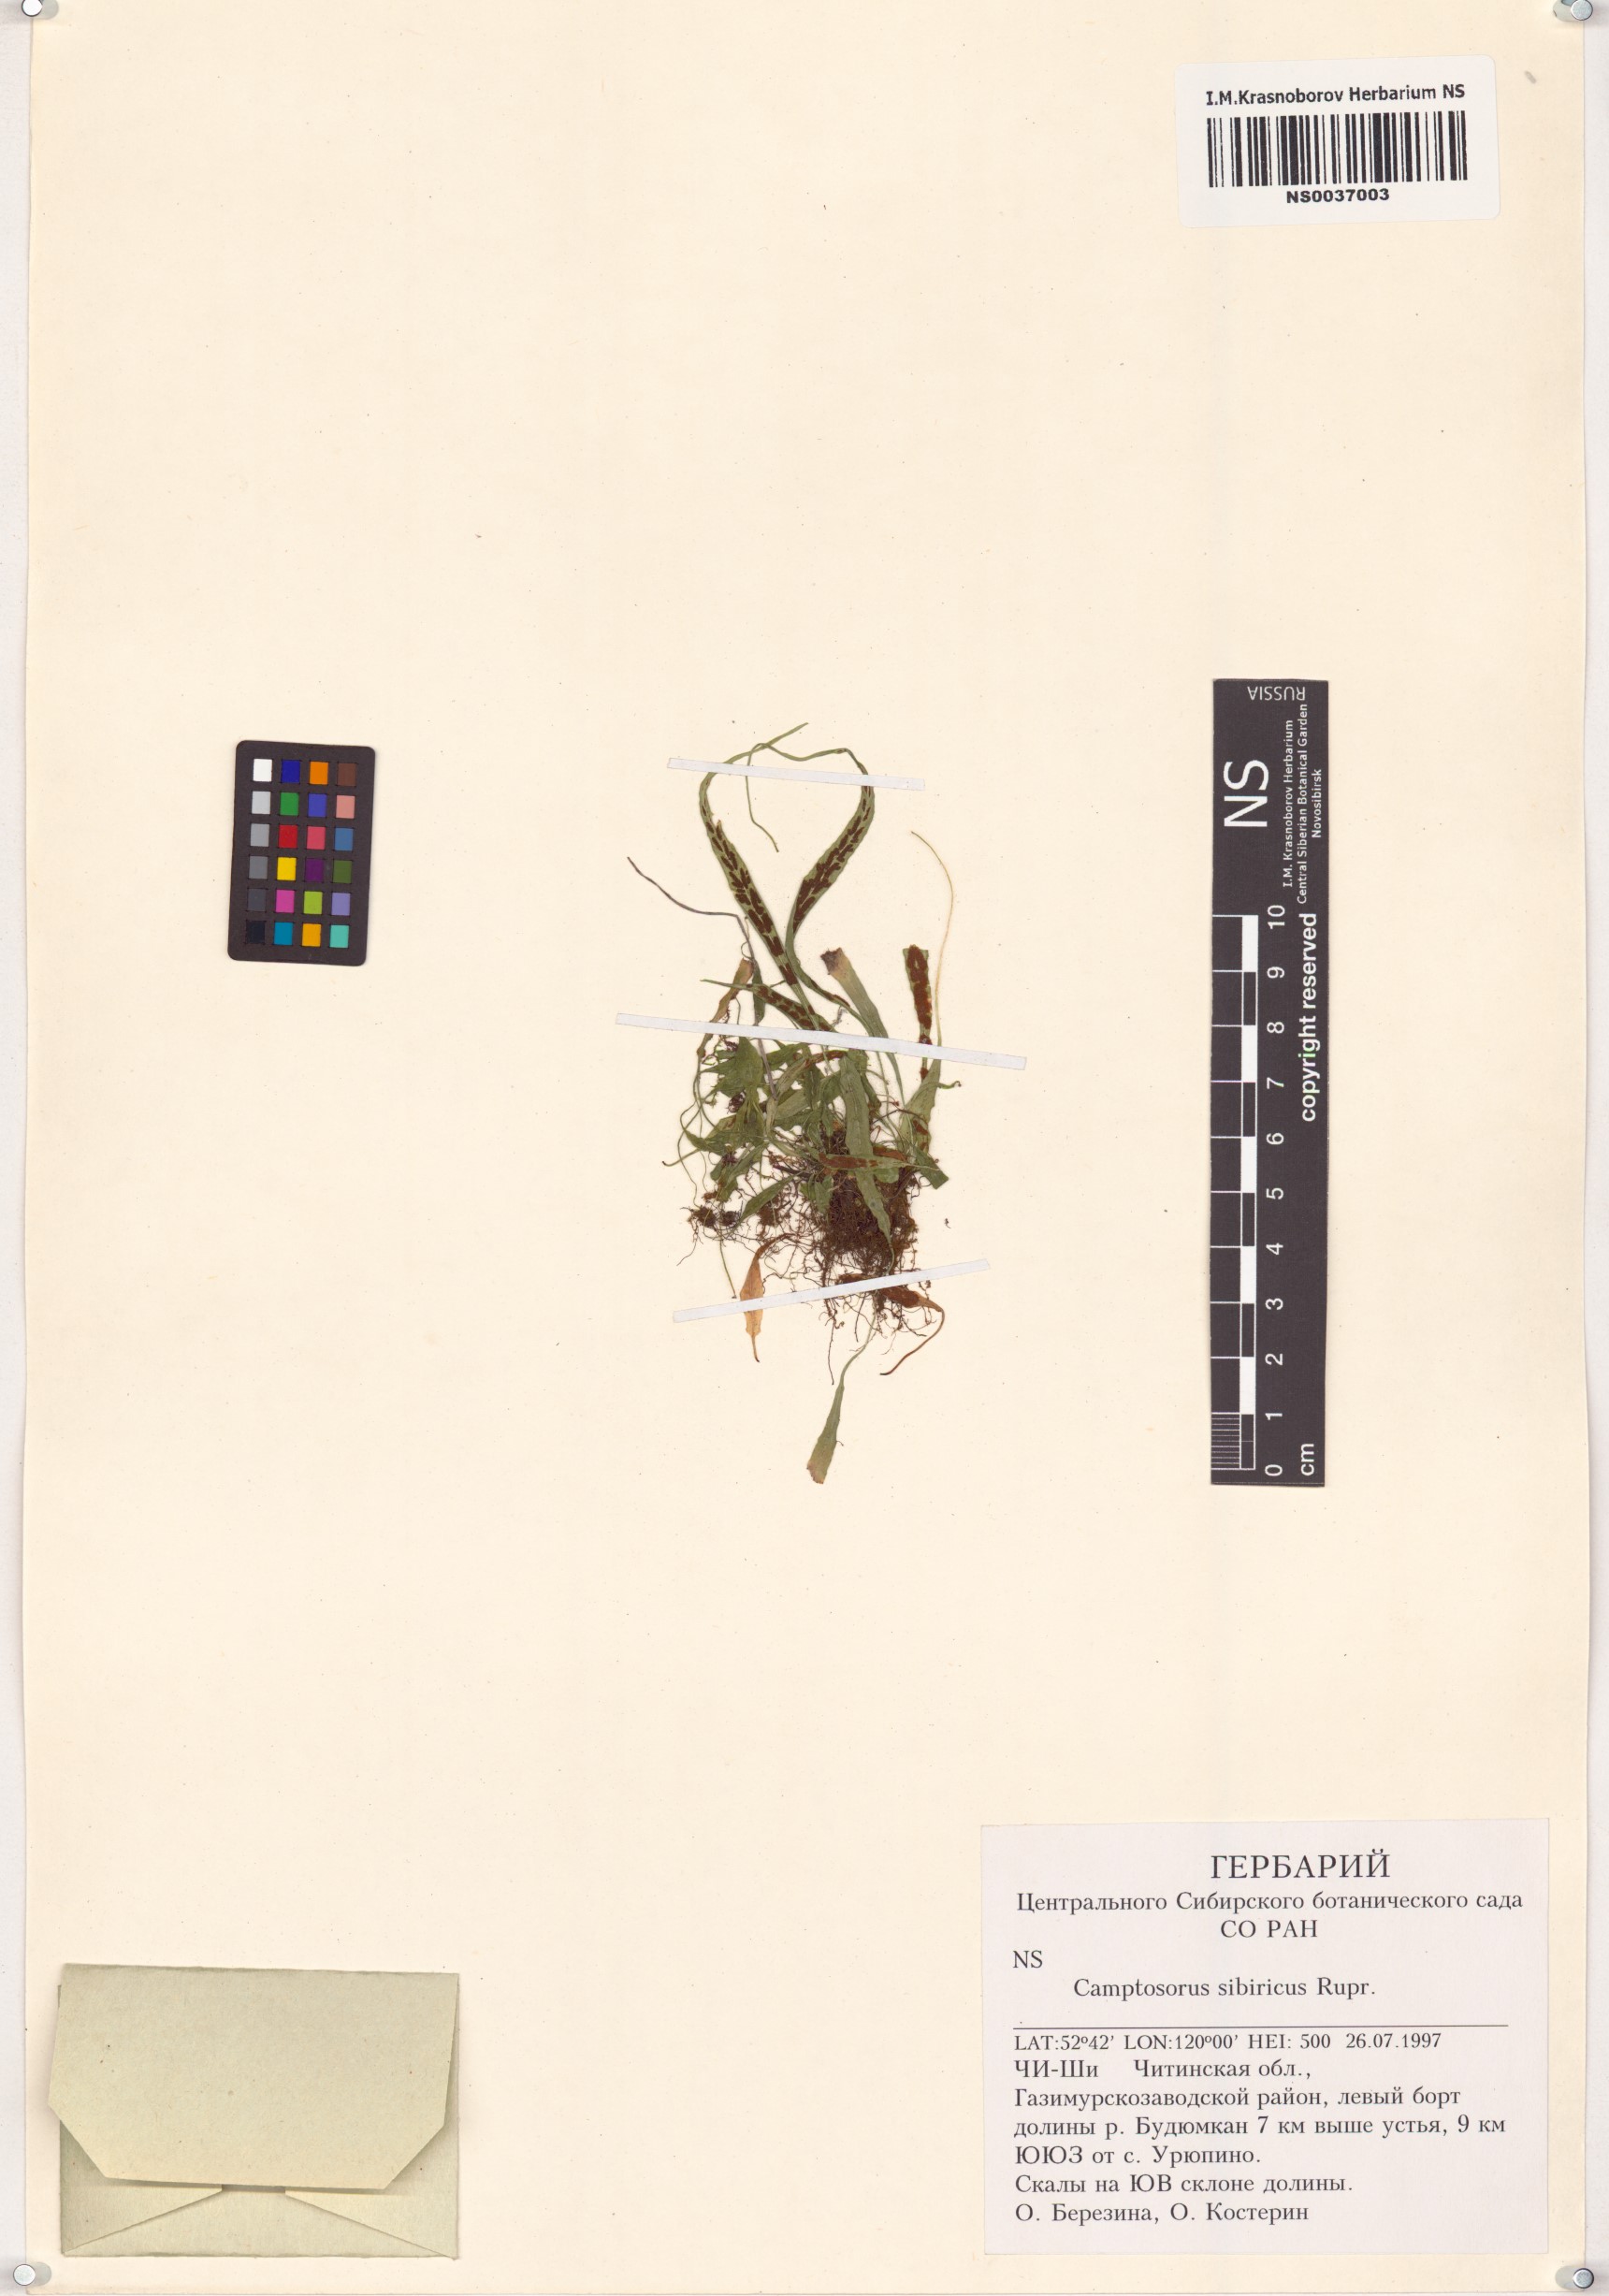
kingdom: Plantae
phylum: Tracheophyta
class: Polypodiopsida
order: Polypodiales
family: Aspleniaceae
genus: Asplenium
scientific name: Asplenium ruprechtii
